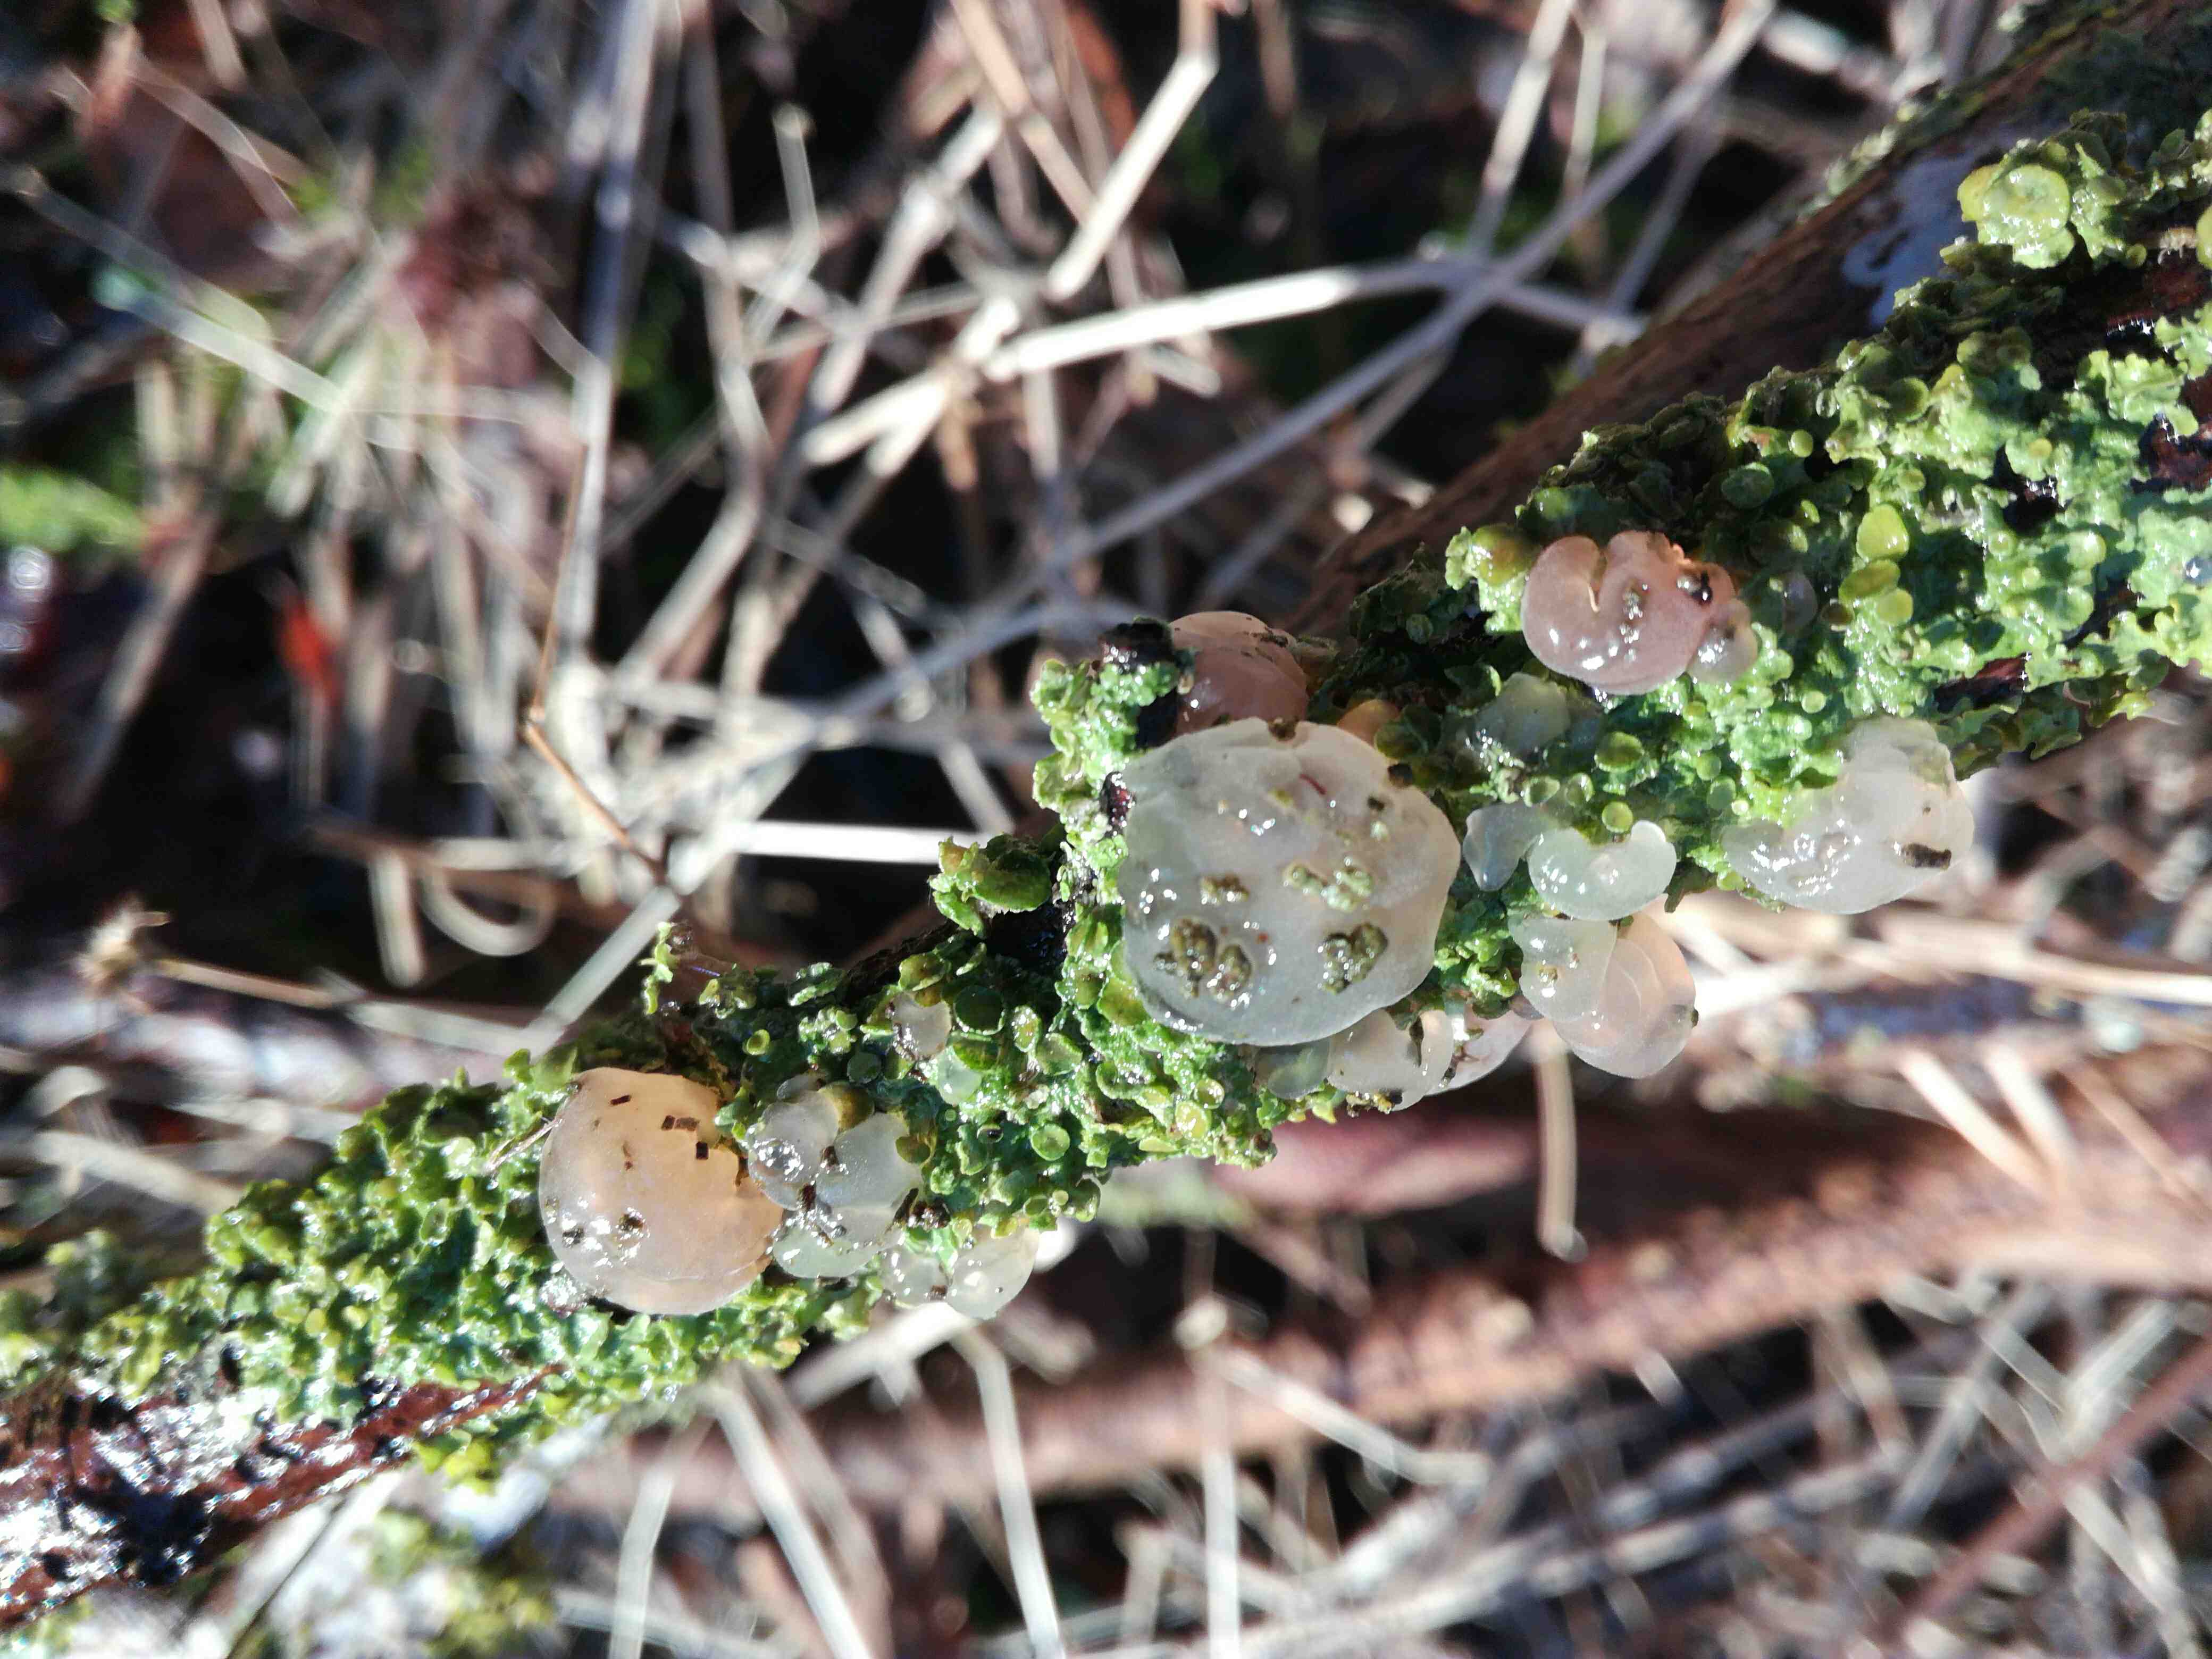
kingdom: Fungi
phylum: Basidiomycota
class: Agaricomycetes
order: Auriculariales
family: Hyaloriaceae
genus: Myxarium
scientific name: Myxarium nucleatum
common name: klar bævretop
